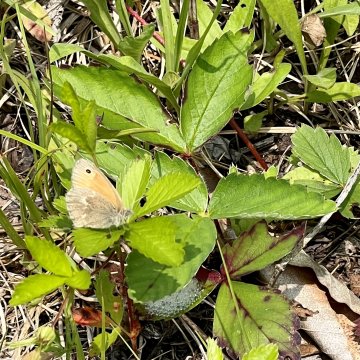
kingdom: Animalia
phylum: Arthropoda
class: Insecta
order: Lepidoptera
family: Nymphalidae
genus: Coenonympha
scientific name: Coenonympha california
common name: California Ringlet
